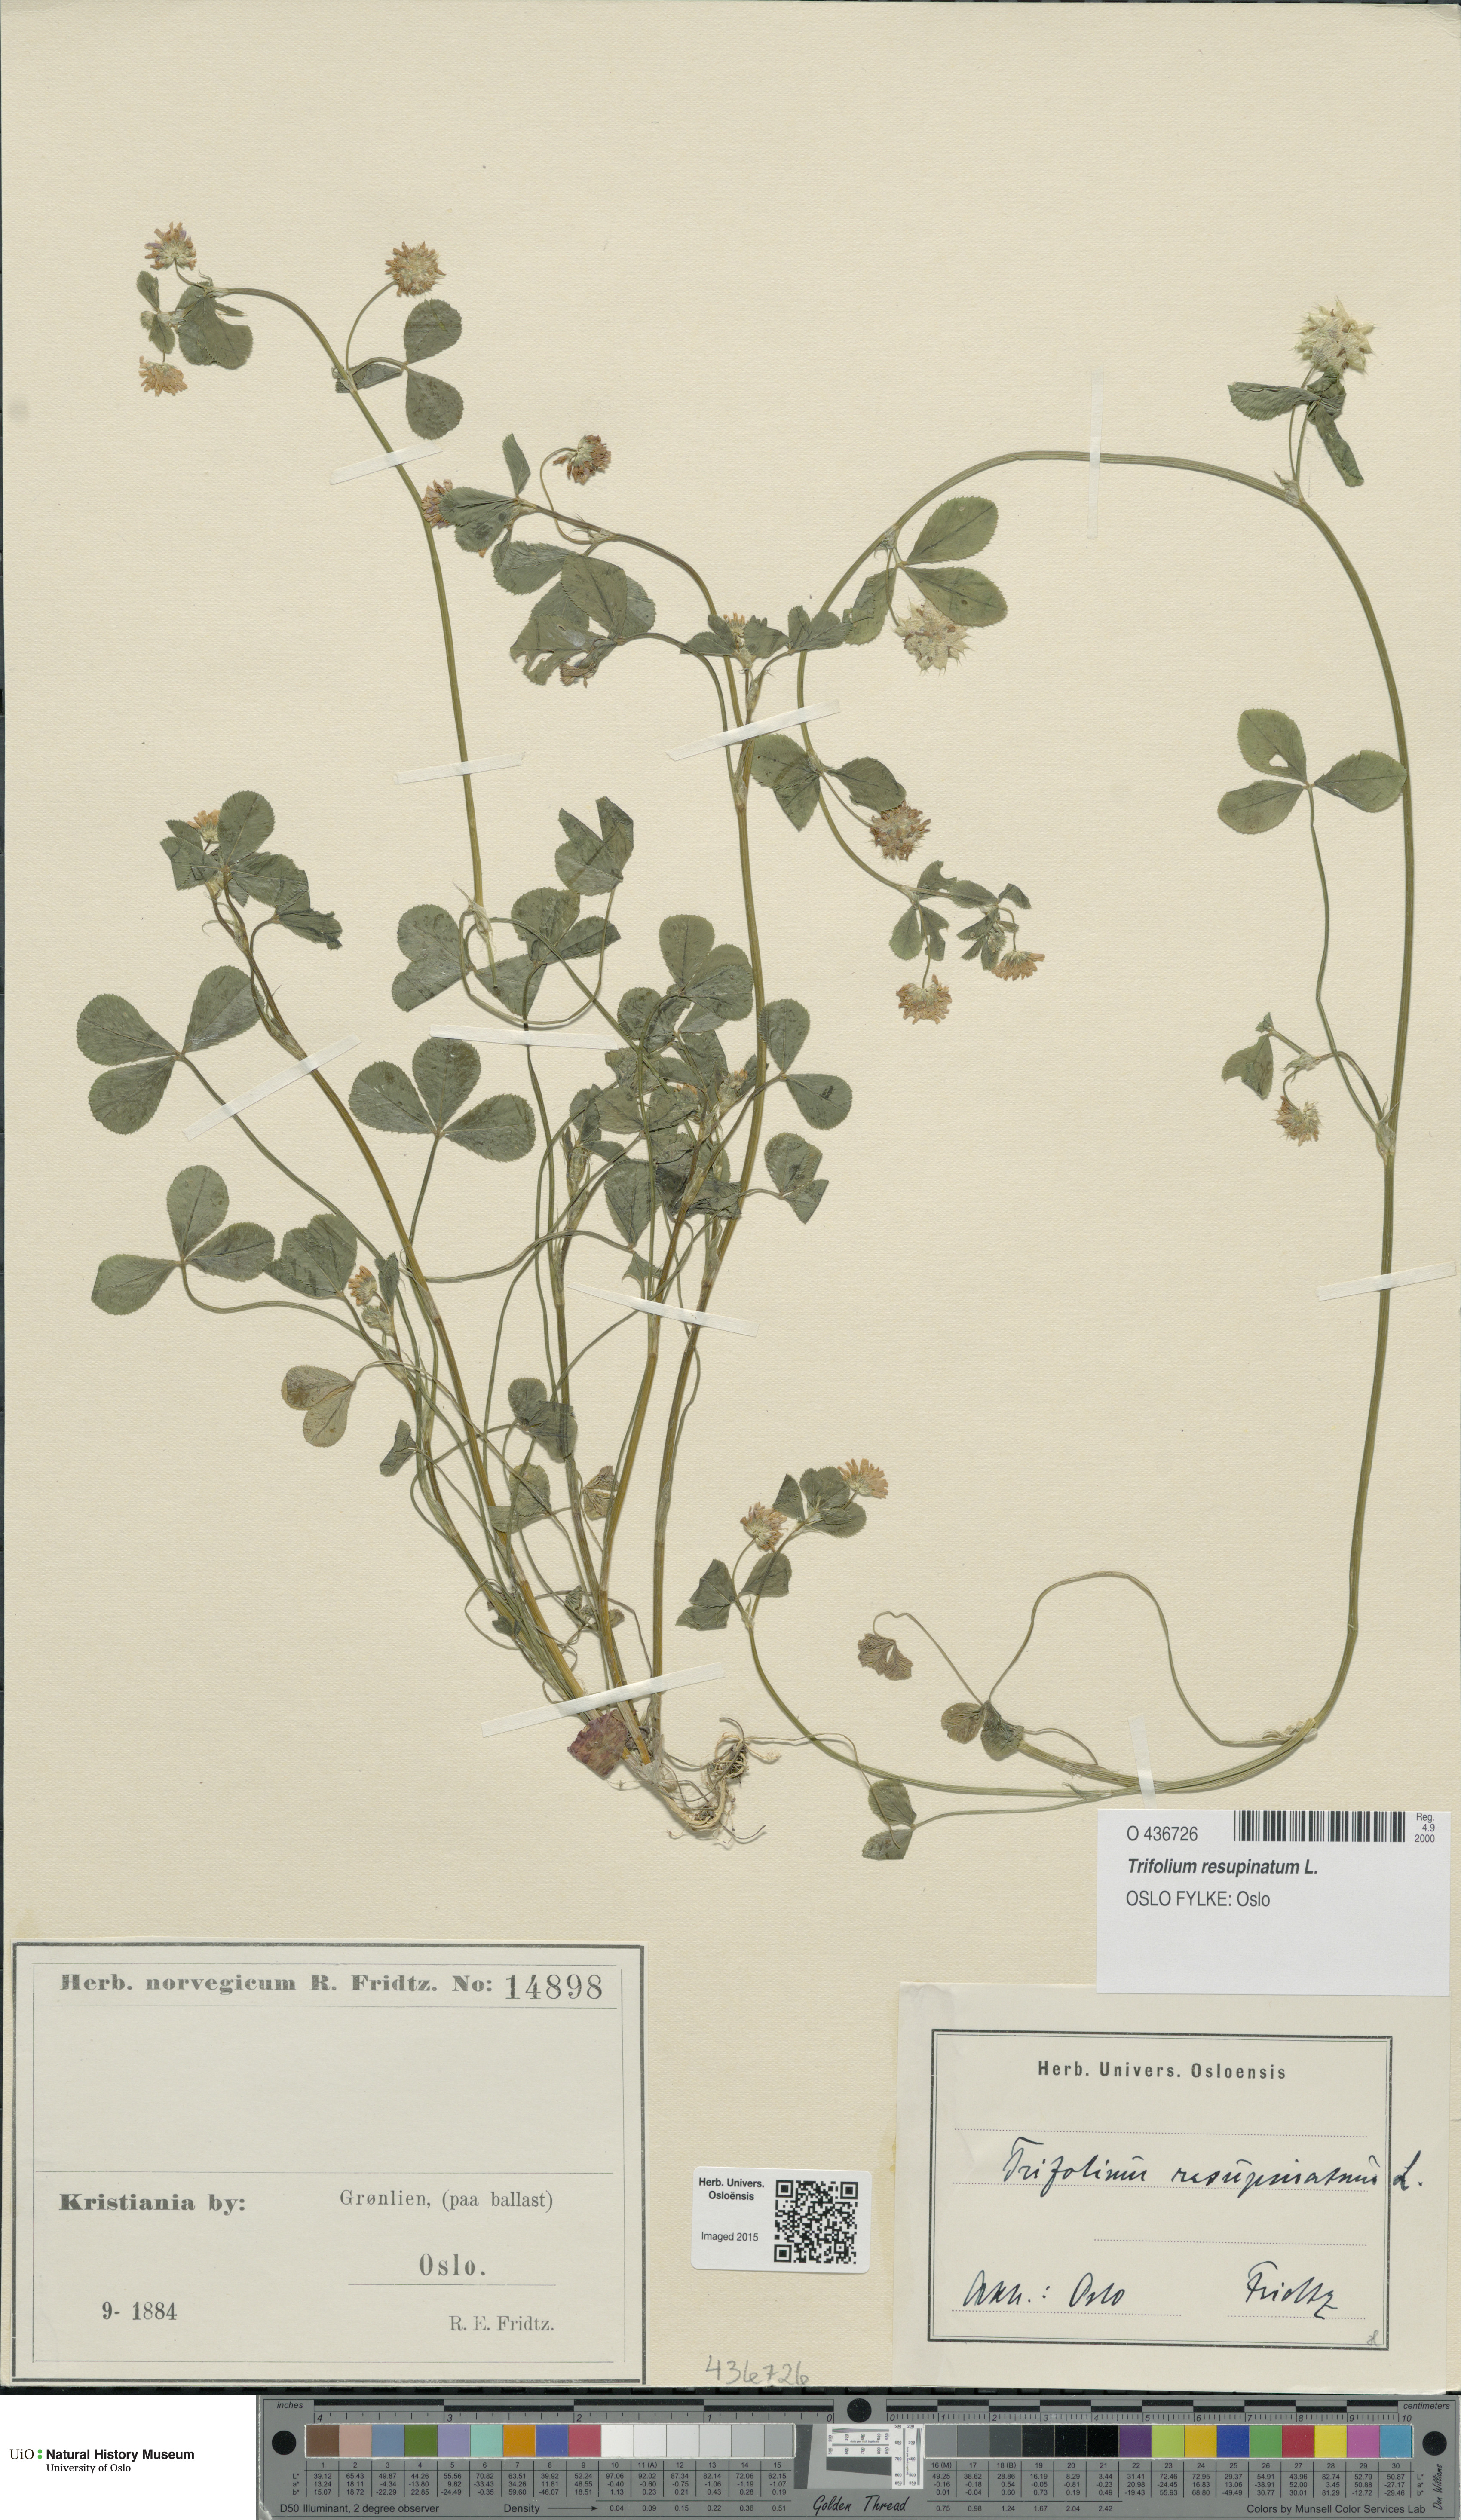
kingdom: Plantae
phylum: Tracheophyta
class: Magnoliopsida
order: Fabales
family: Fabaceae
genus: Trifolium
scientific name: Trifolium resupinatum
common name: Reversed clover
